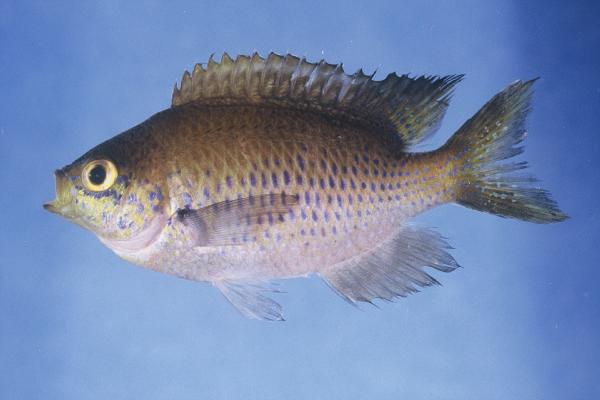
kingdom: Animalia
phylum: Chordata
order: Perciformes
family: Pomacentridae
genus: Chromis
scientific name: Chromis dasygenys
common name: Blue-spotted chromis
